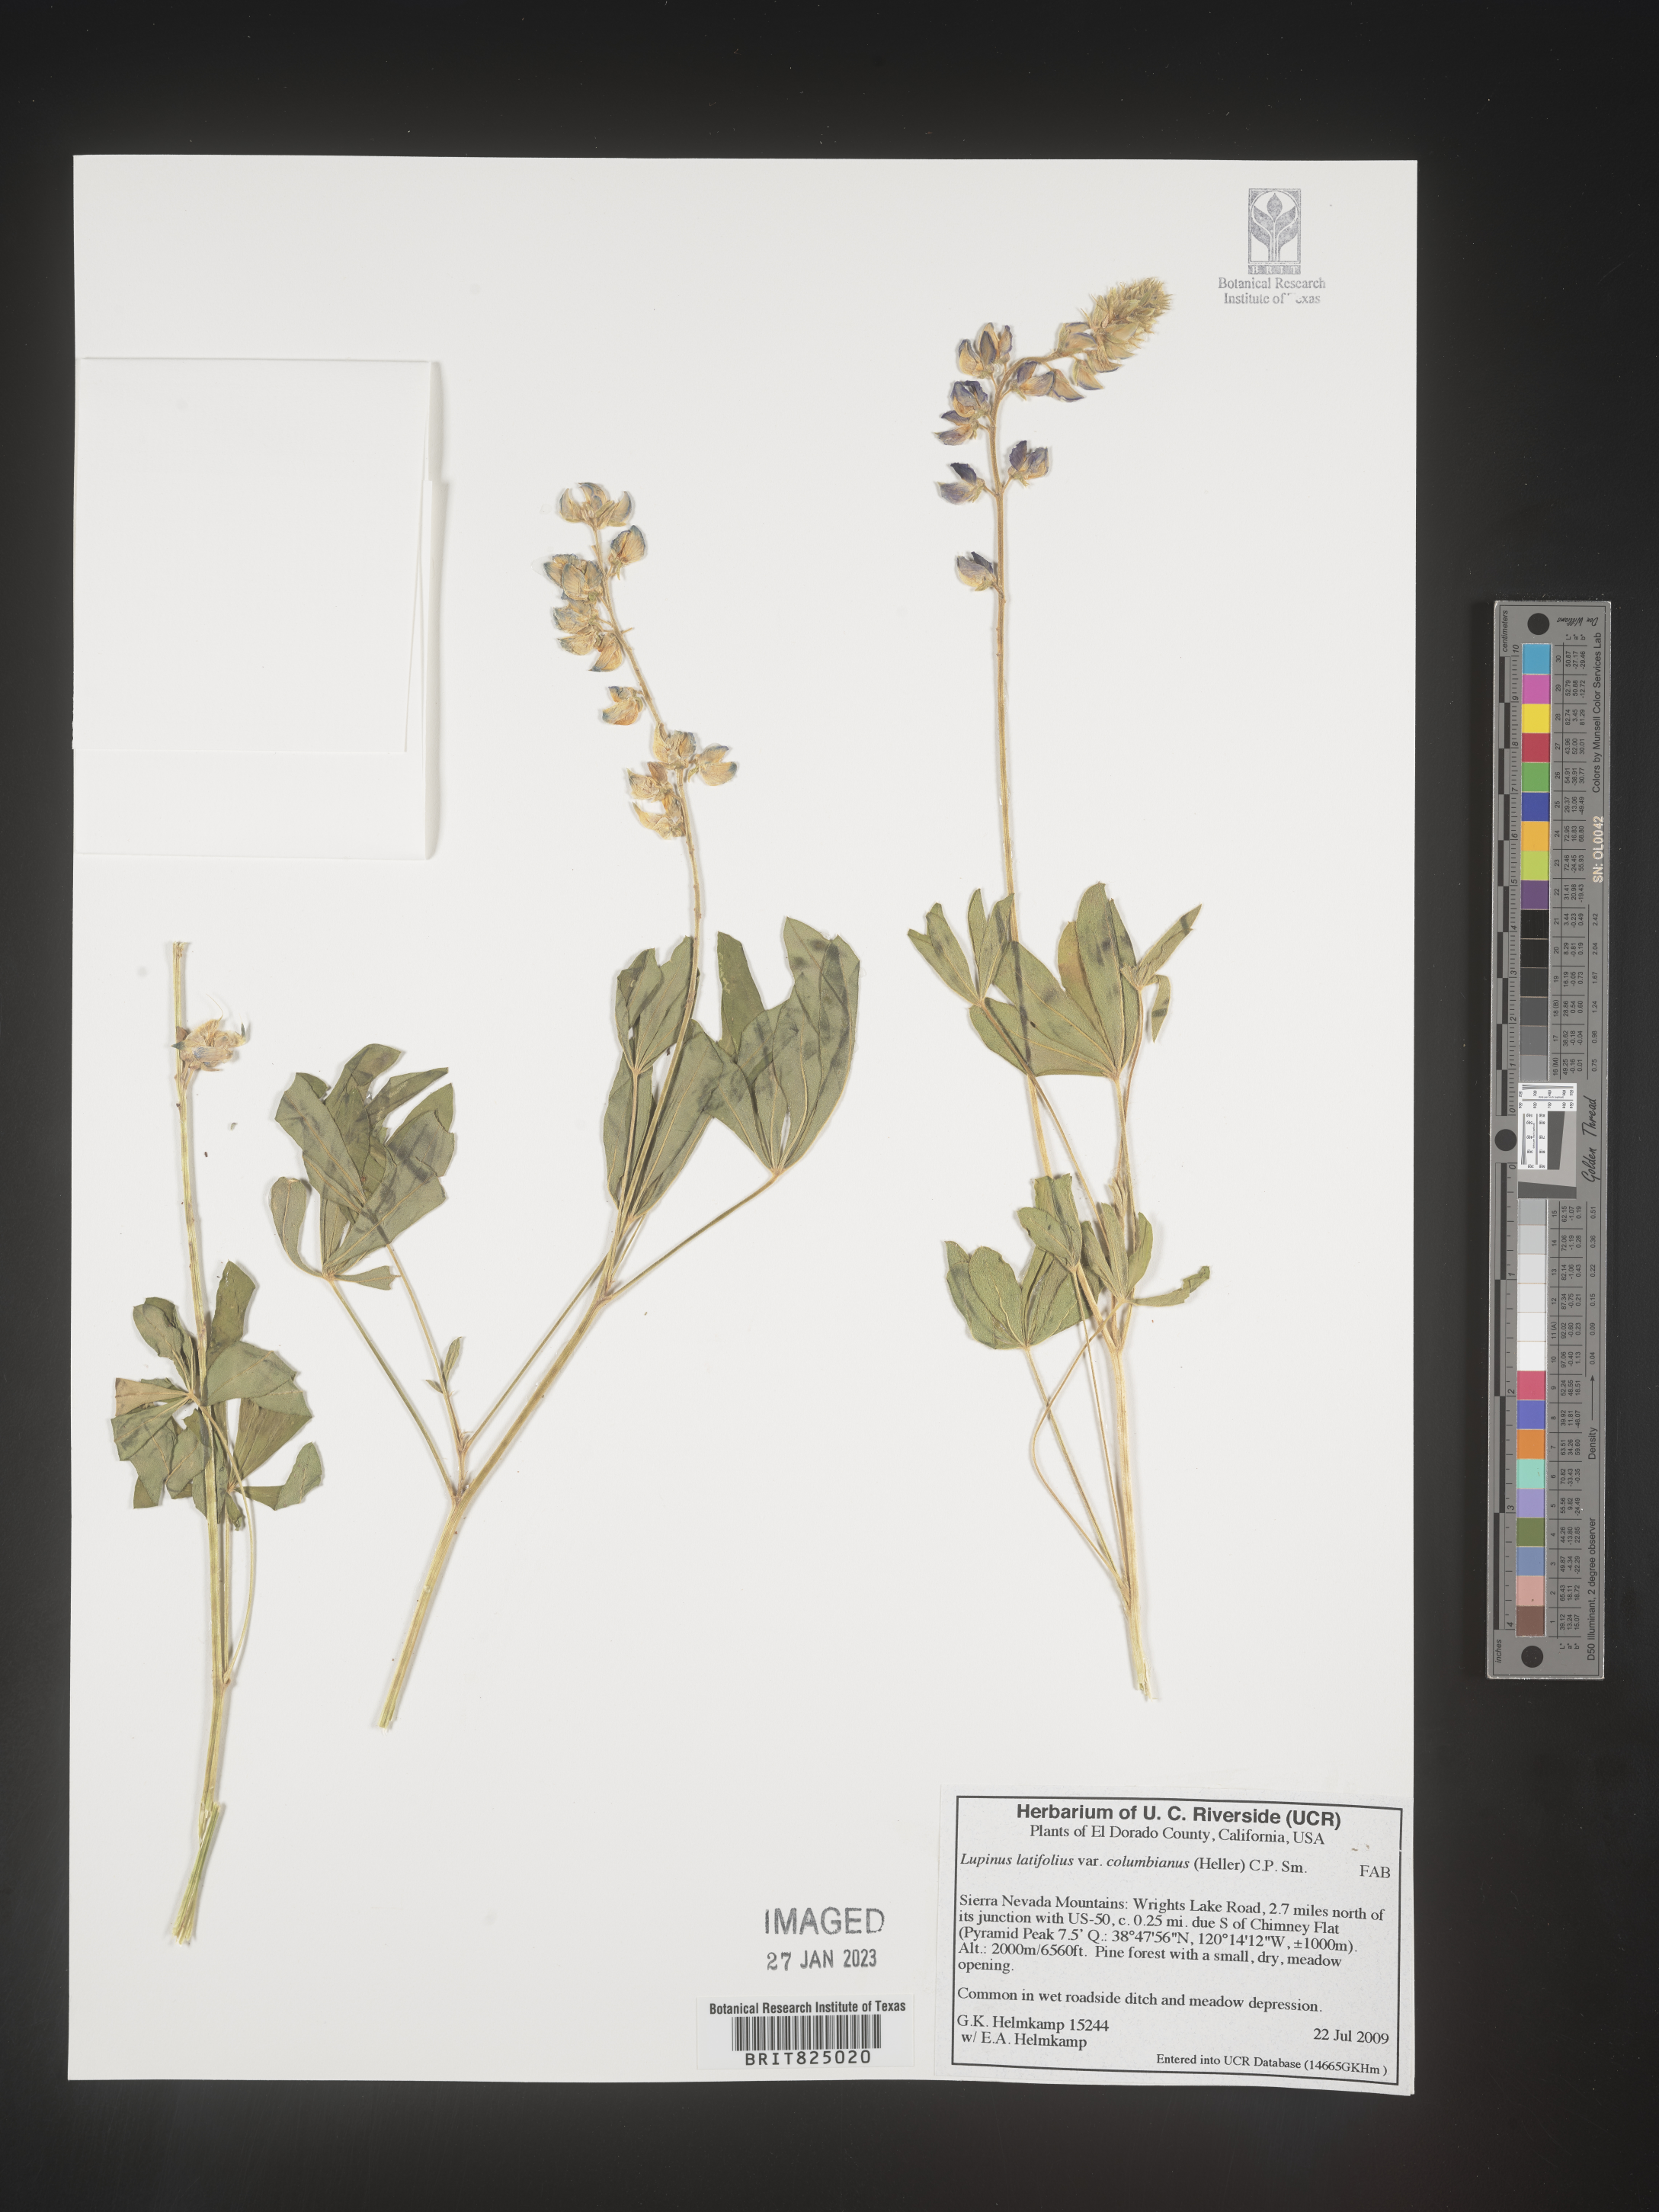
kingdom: Plantae
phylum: Tracheophyta
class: Magnoliopsida
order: Fabales
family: Fabaceae
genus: Lupinus
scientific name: Lupinus
